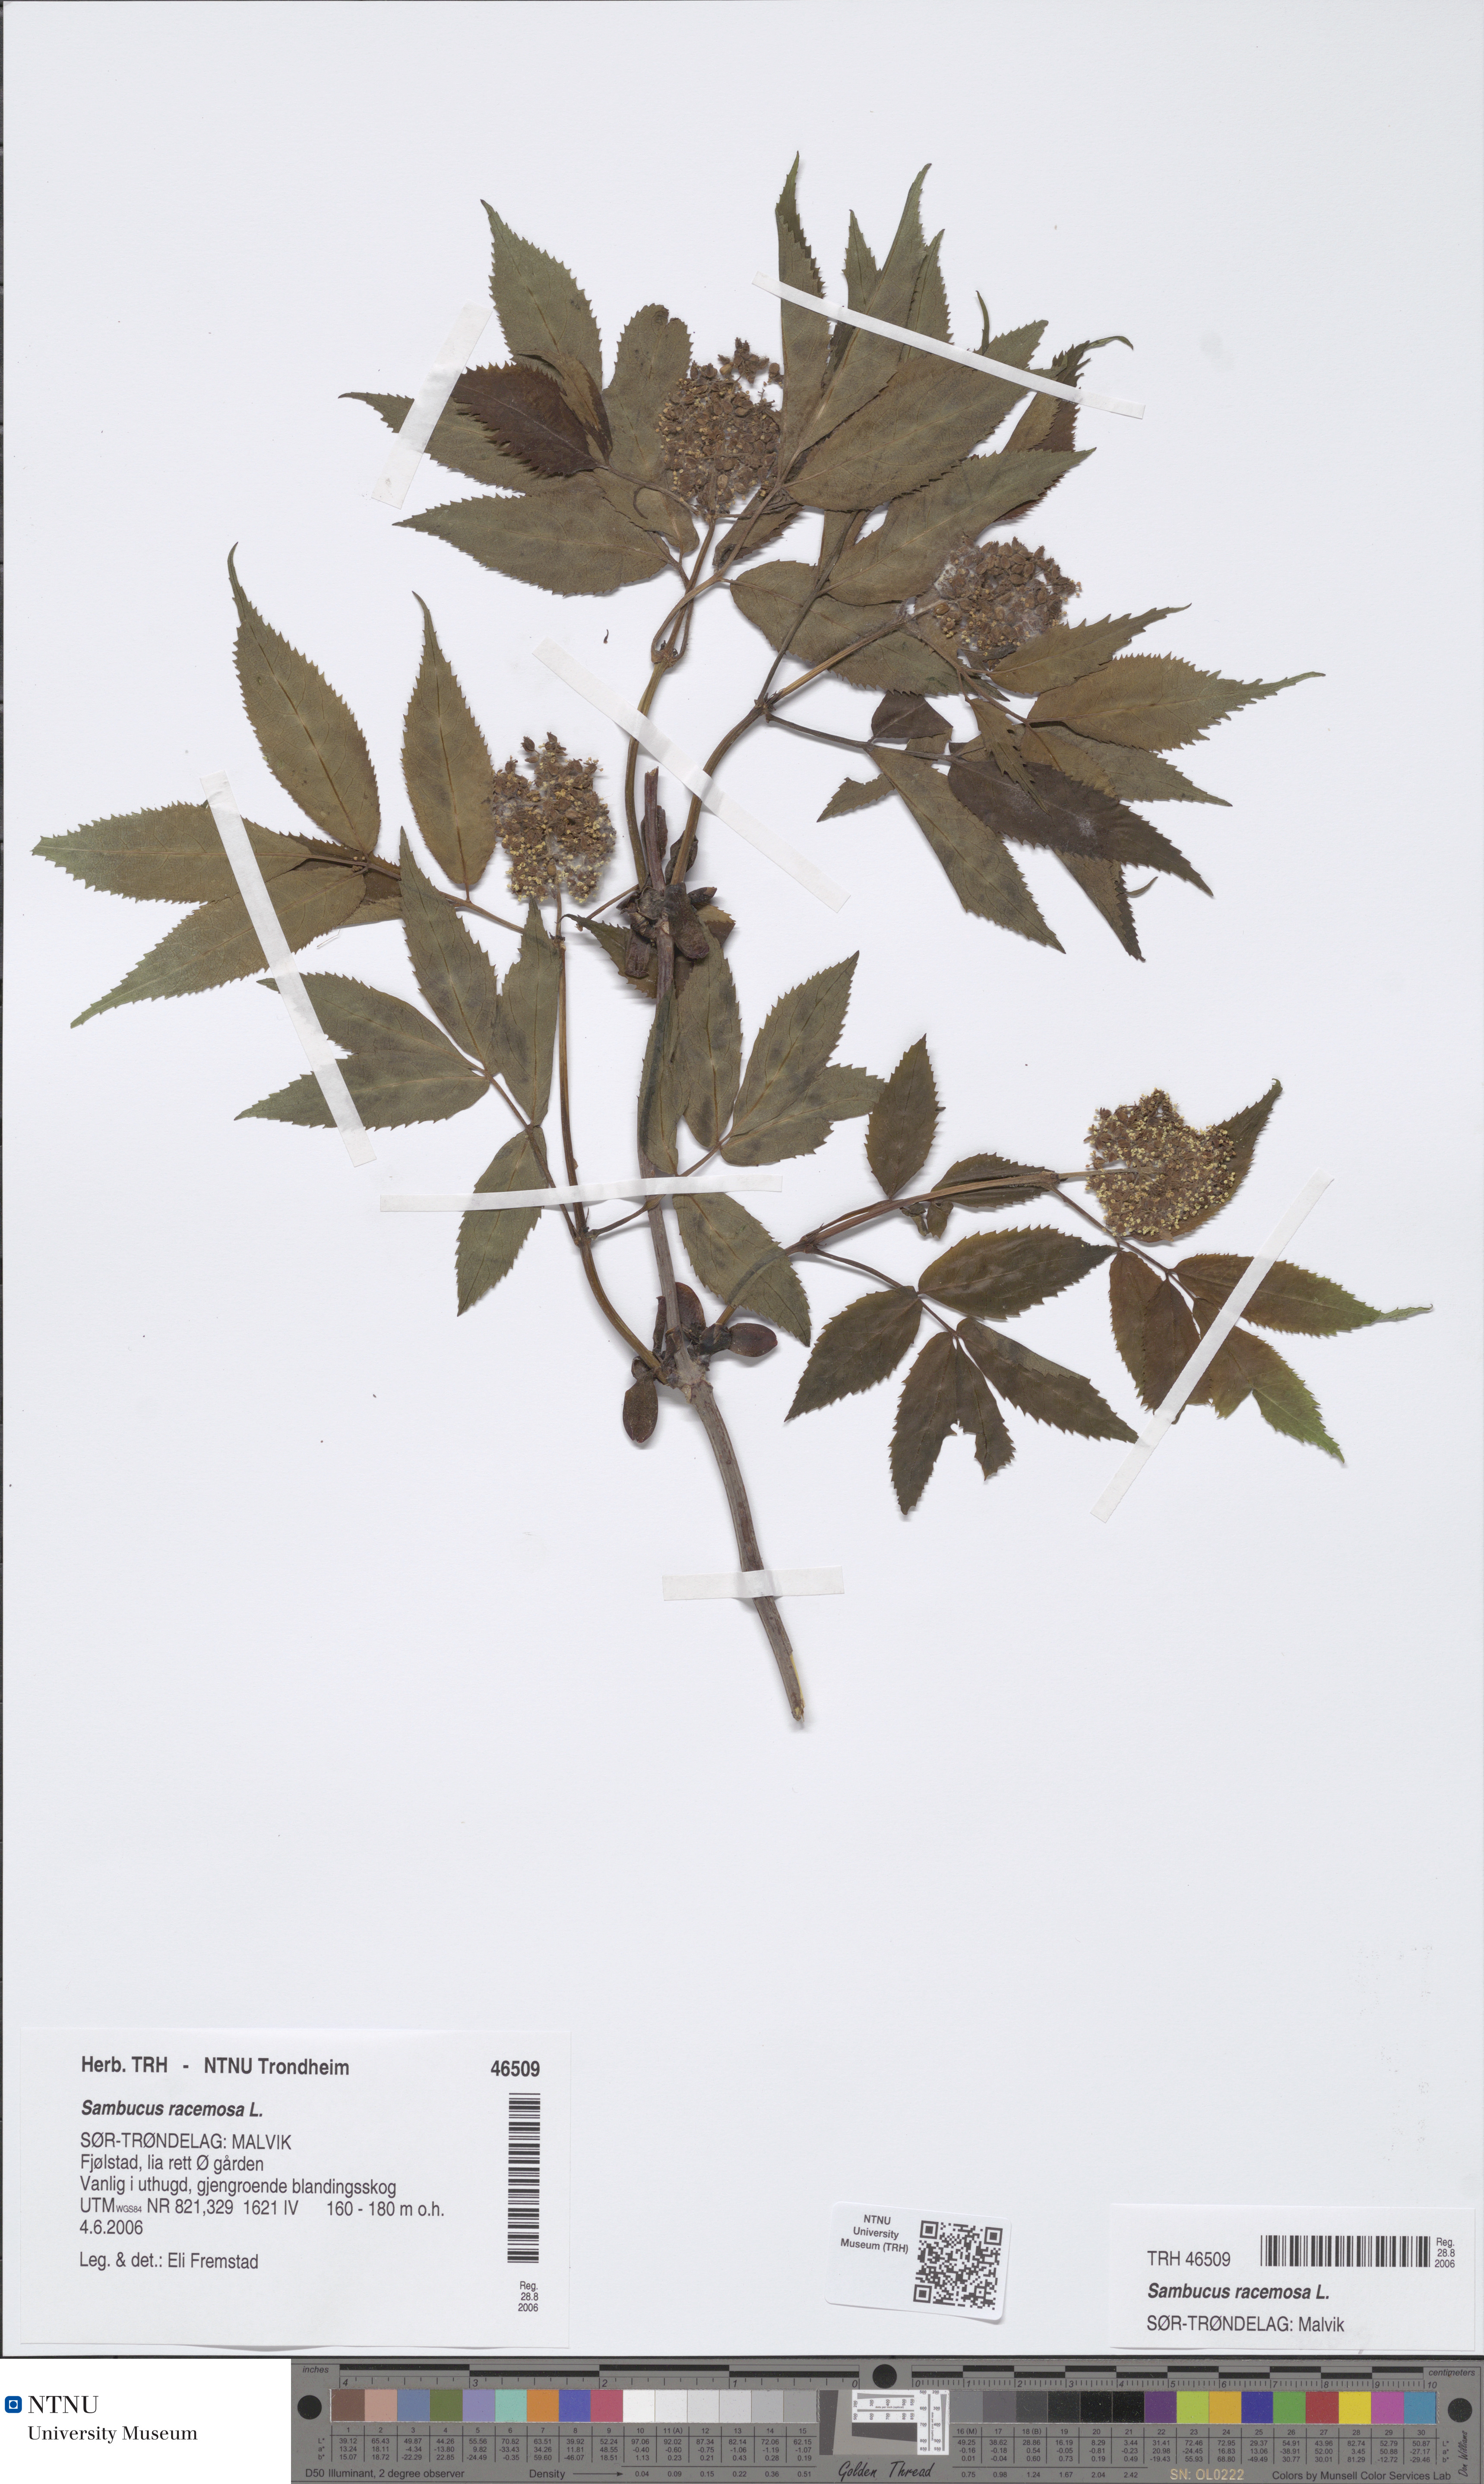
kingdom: Plantae
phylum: Tracheophyta
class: Magnoliopsida
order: Dipsacales
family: Viburnaceae
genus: Sambucus
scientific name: Sambucus racemosa
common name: Red-berried elder
